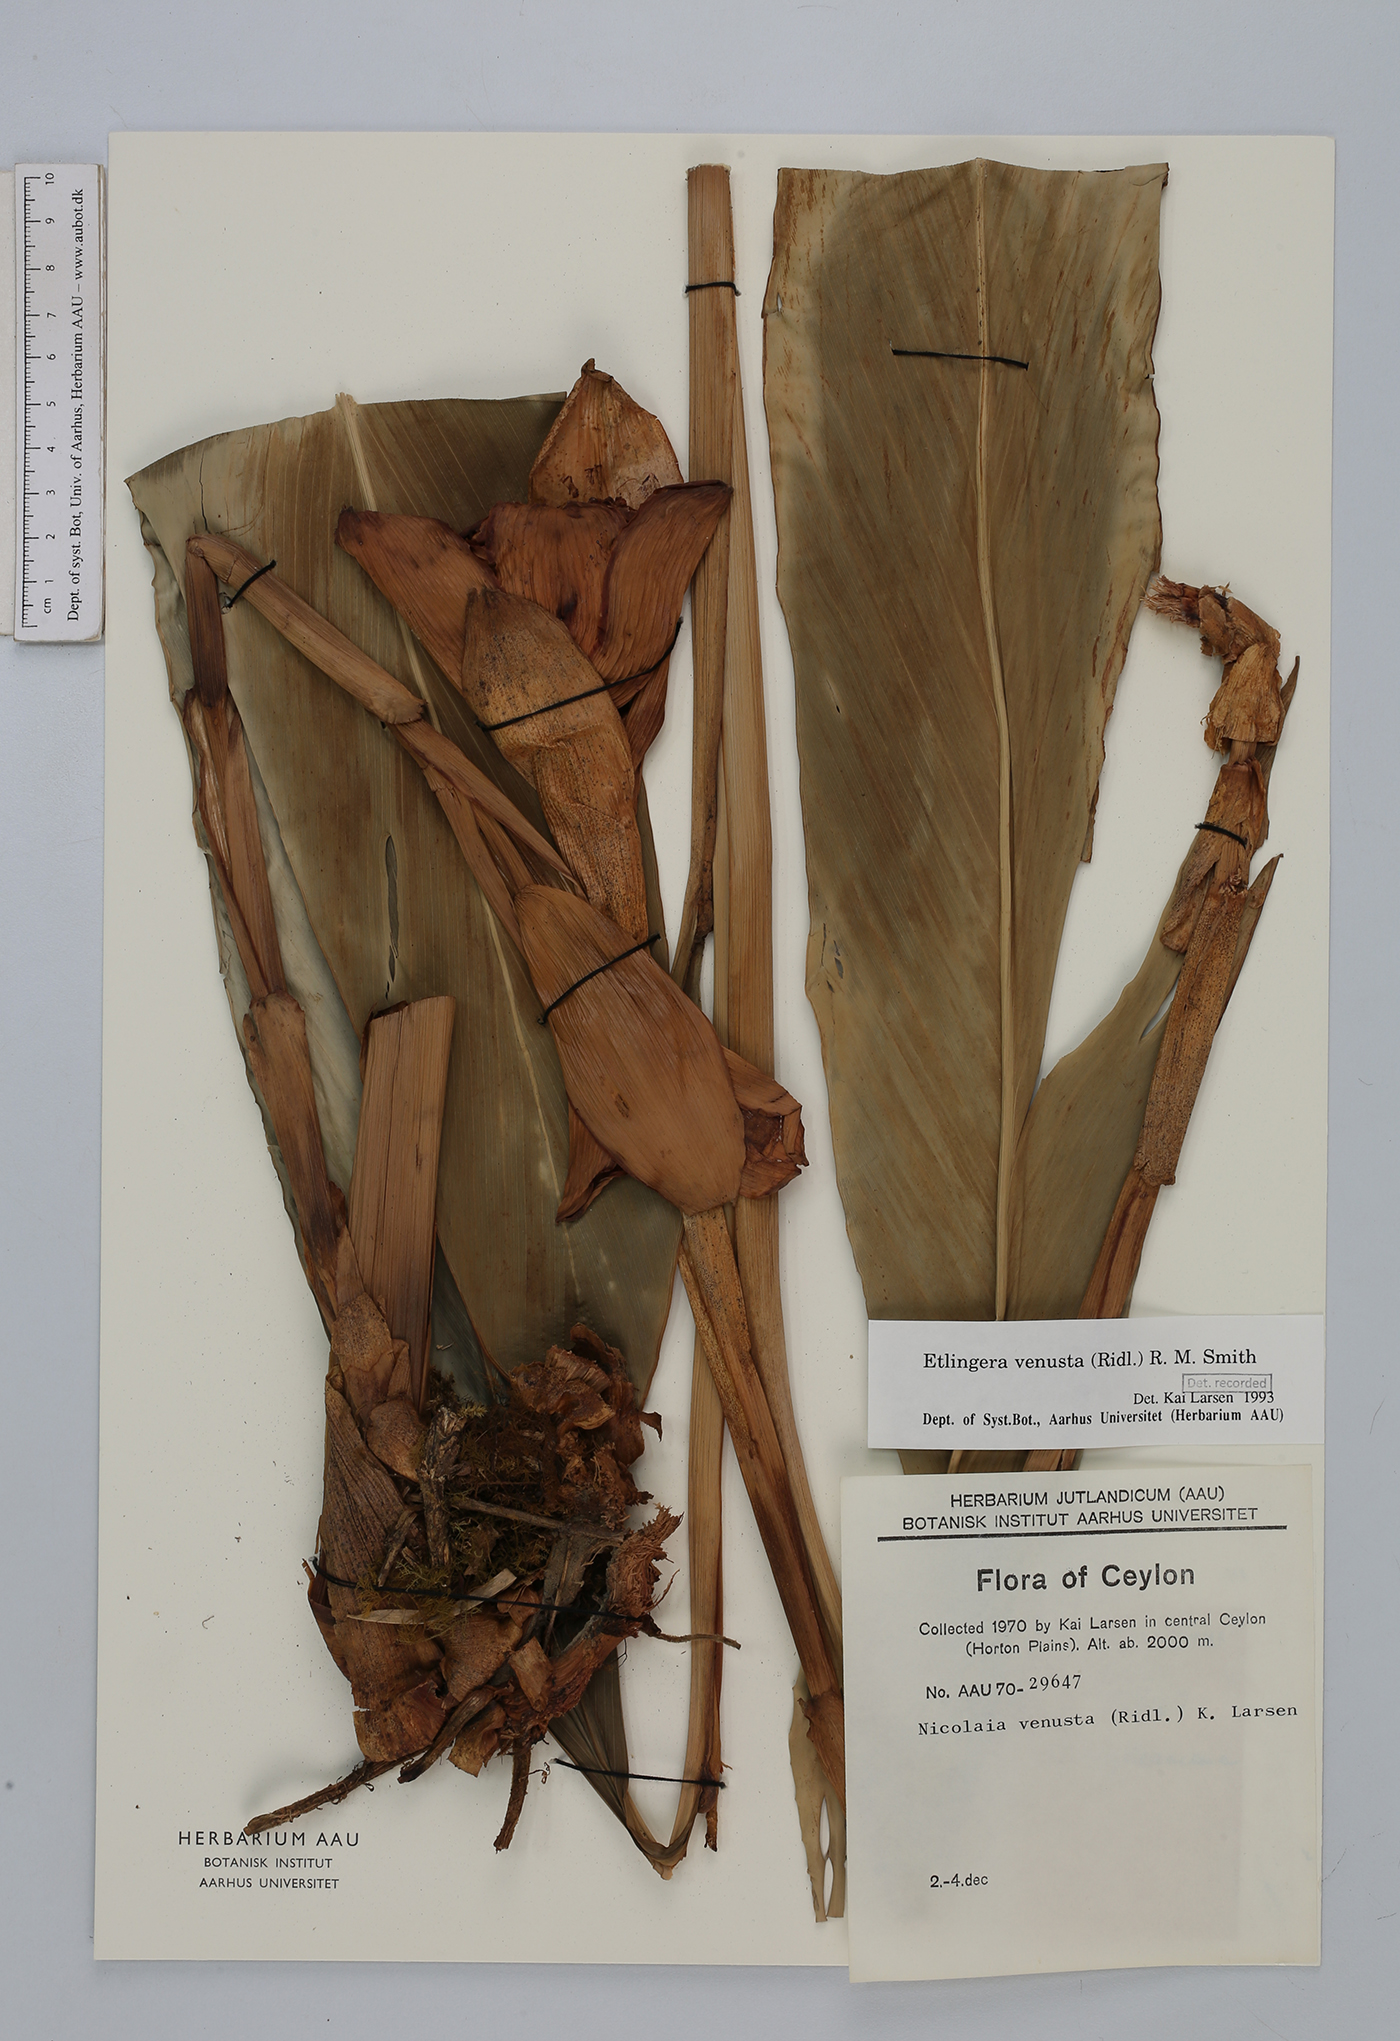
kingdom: Plantae
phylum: Tracheophyta
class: Liliopsida
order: Zingiberales
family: Zingiberaceae
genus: Etlingera
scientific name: Etlingera venusta
